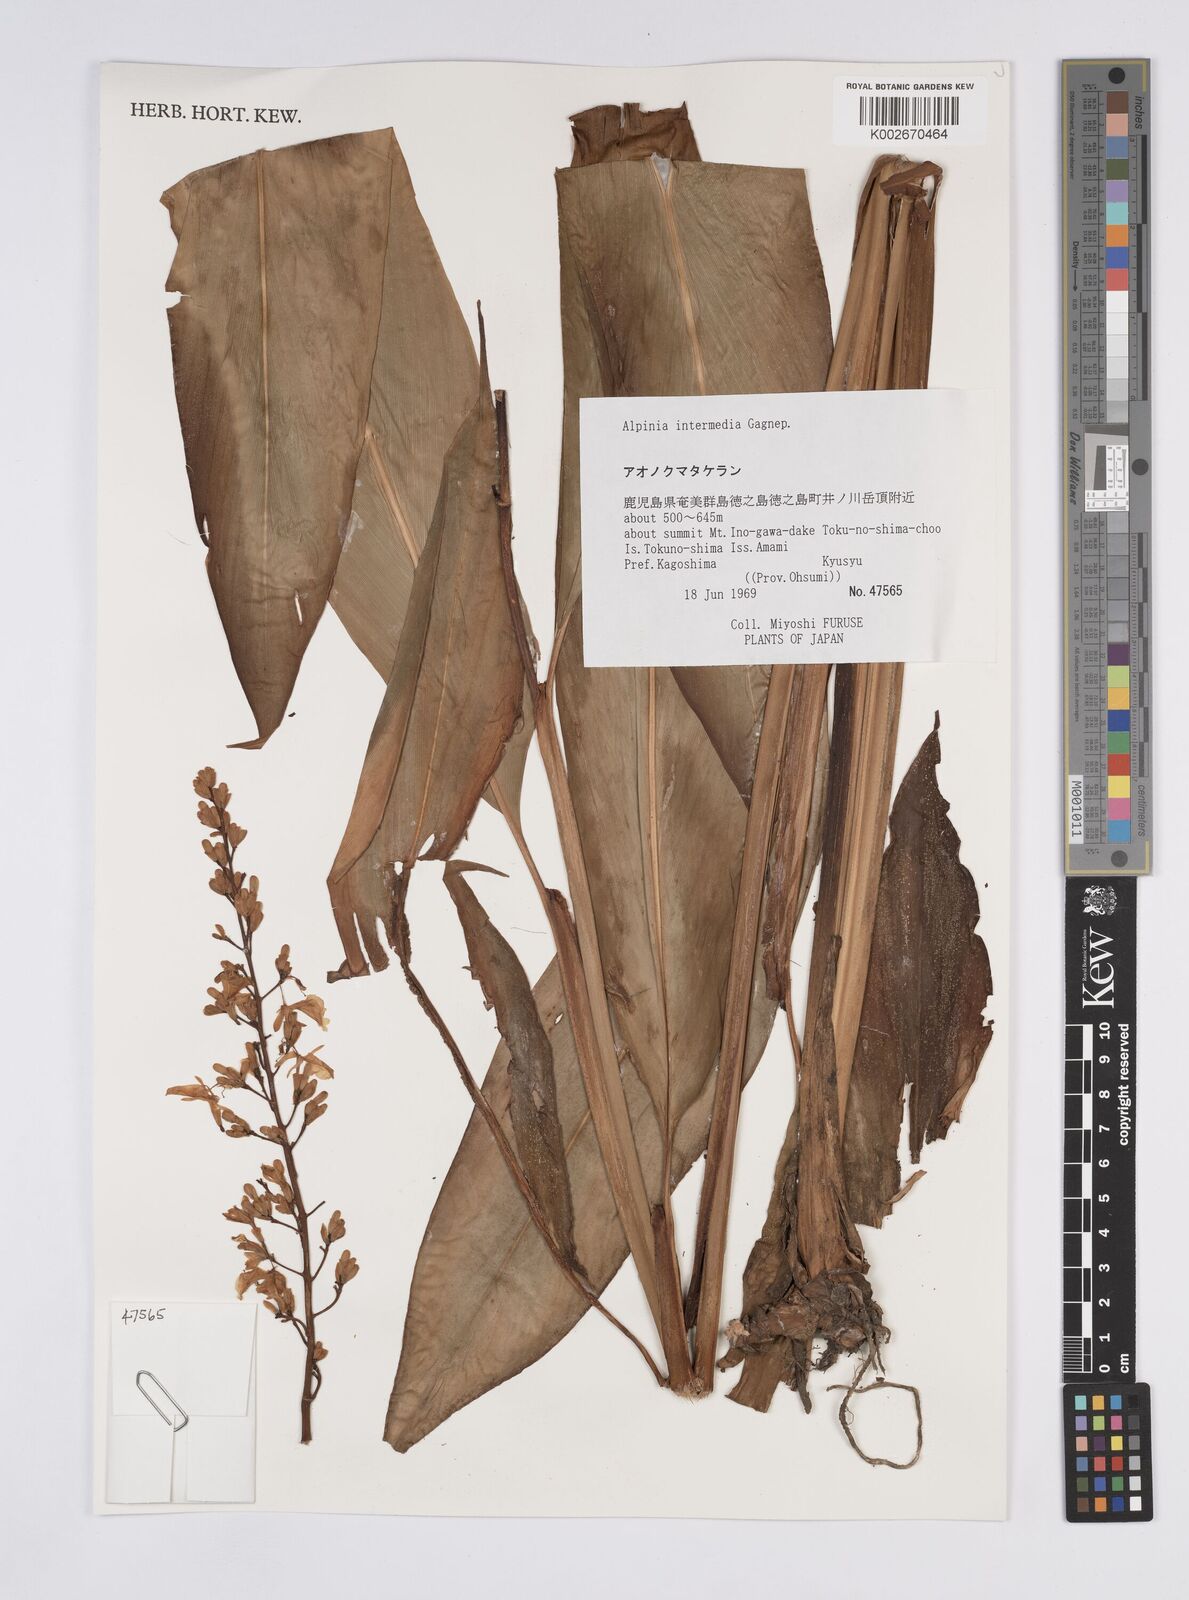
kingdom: Plantae
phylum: Tracheophyta
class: Liliopsida
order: Zingiberales
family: Zingiberaceae
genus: Alpinia
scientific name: Alpinia intermedia
